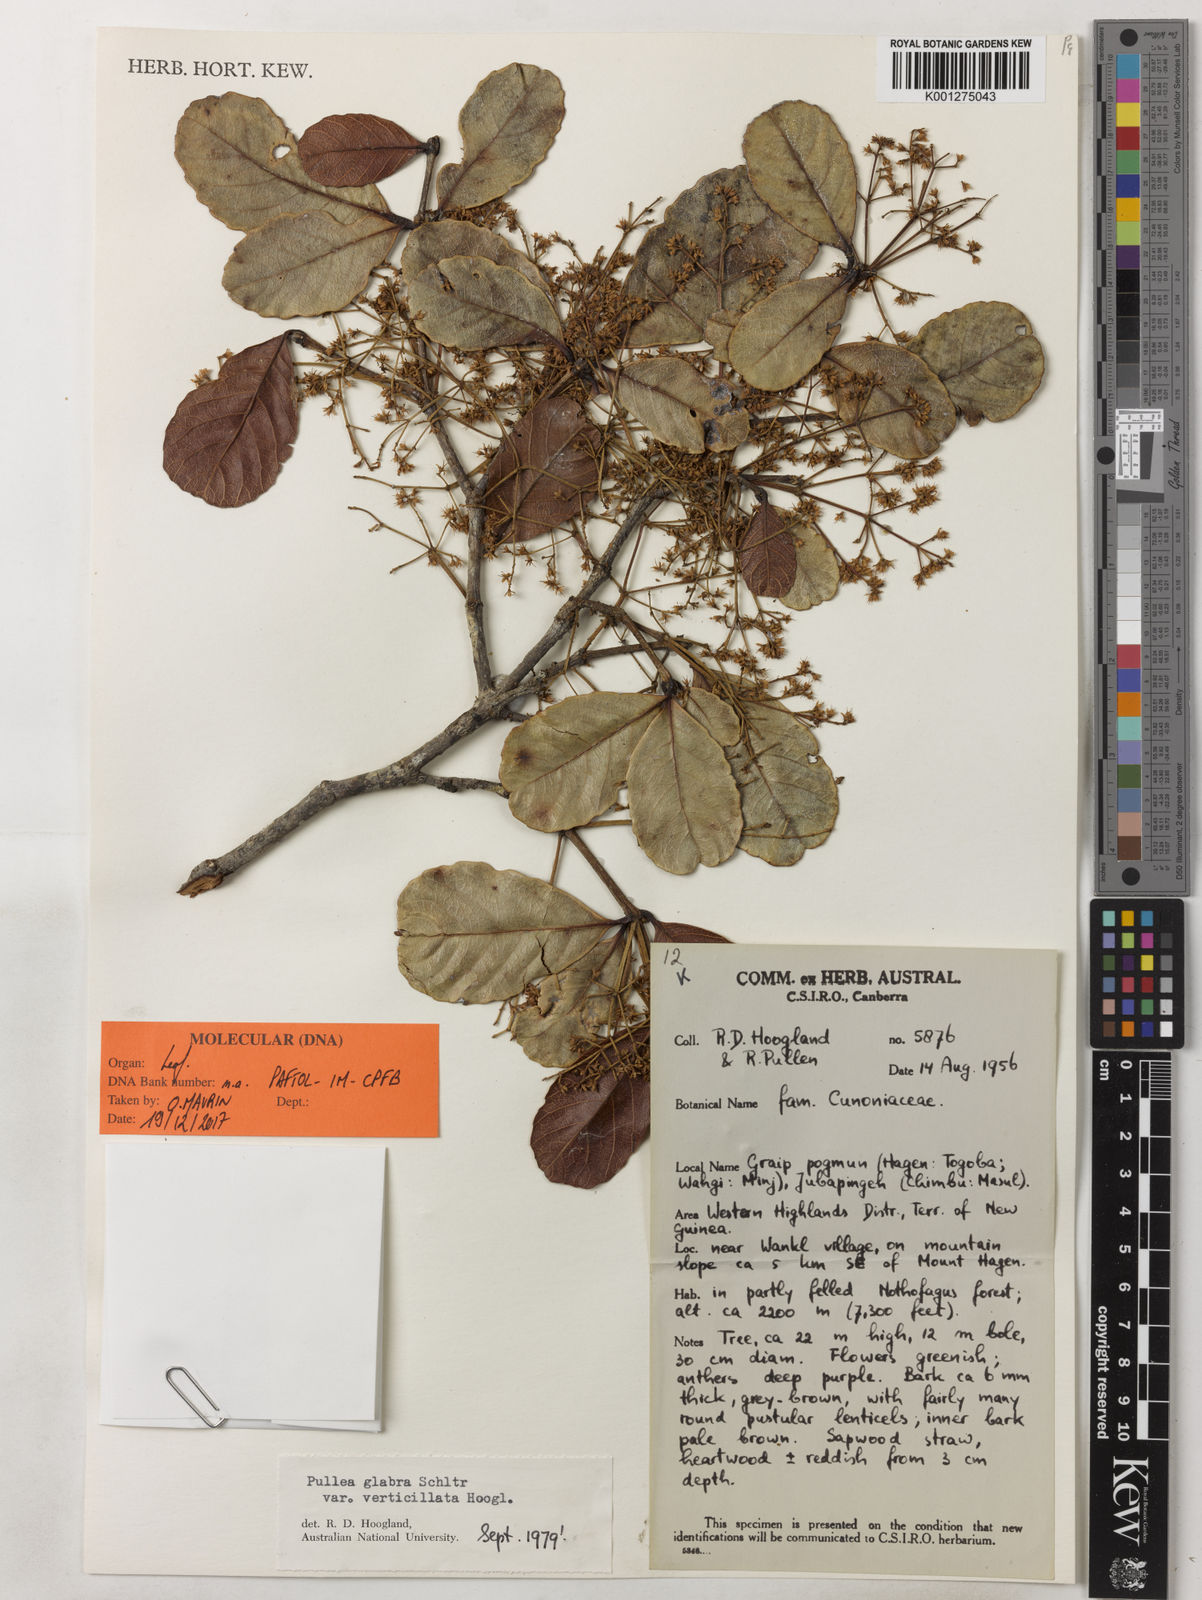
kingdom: Plantae
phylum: Tracheophyta
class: Magnoliopsida
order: Oxalidales
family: Cunoniaceae
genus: Pullea
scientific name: Pullea glabra
